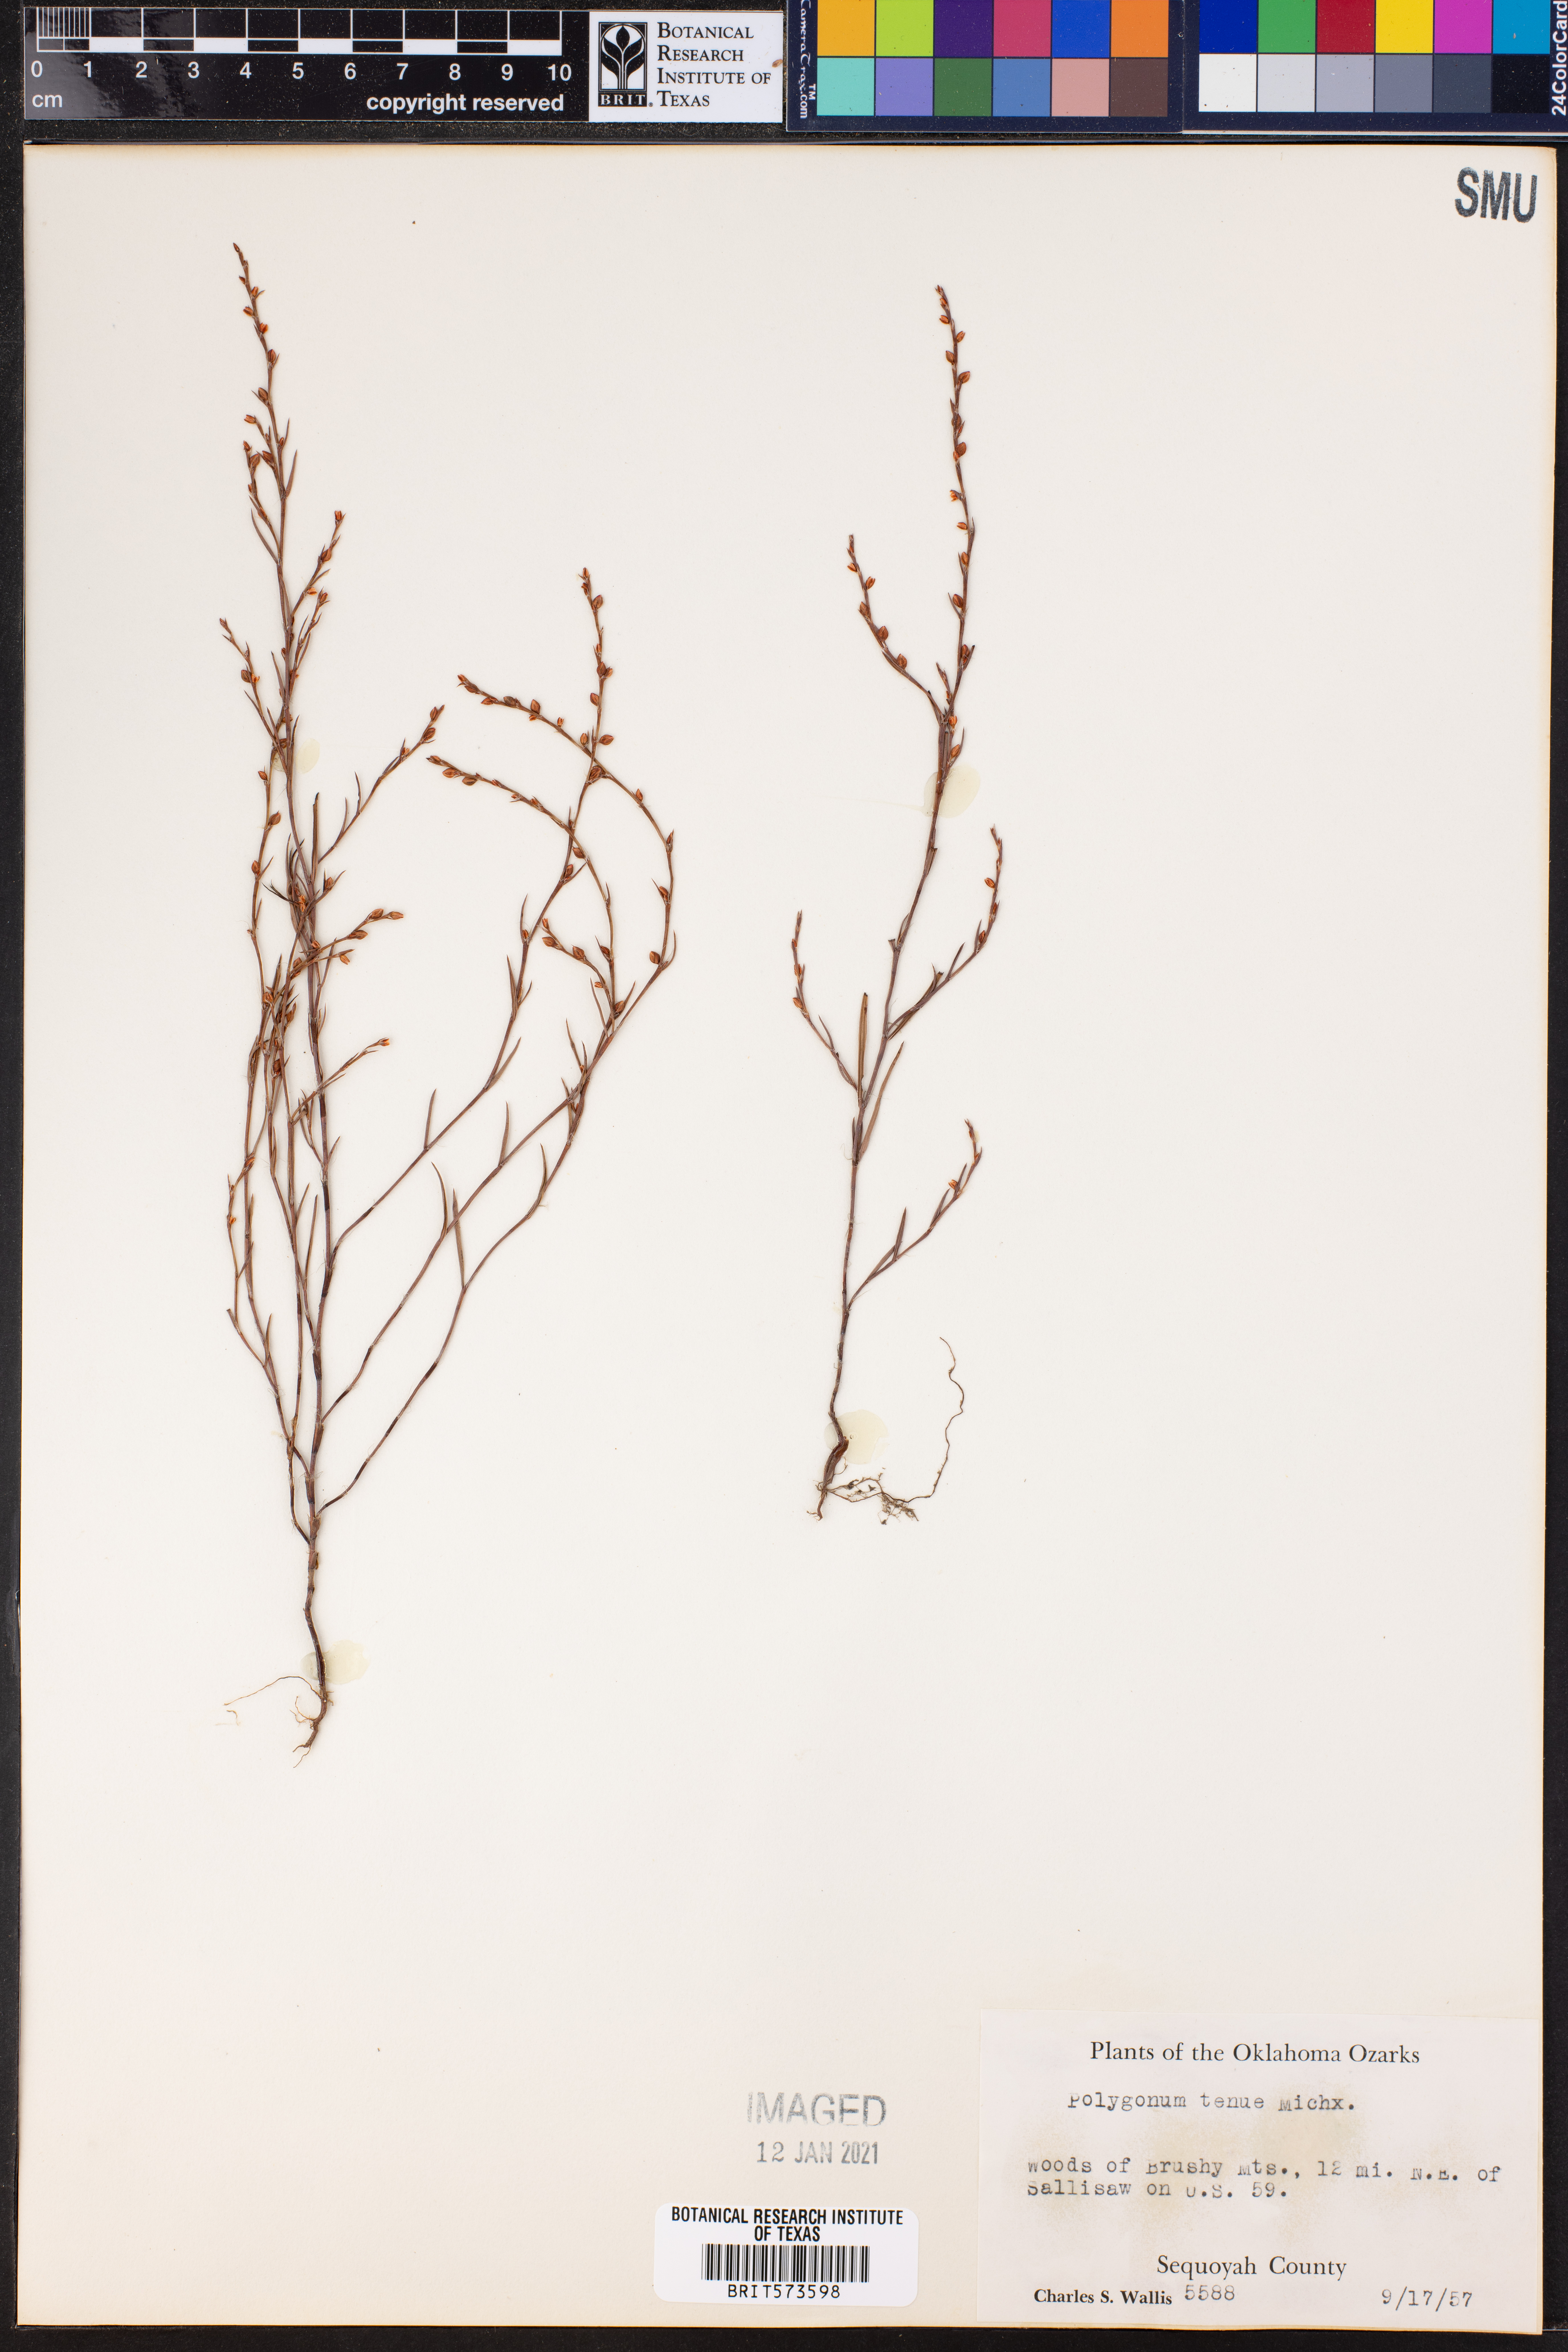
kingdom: Plantae
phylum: Tracheophyta
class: Magnoliopsida
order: Caryophyllales
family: Polygonaceae
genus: Polygonum
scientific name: Polygonum tenue
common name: Pleat-leaved knotweed
